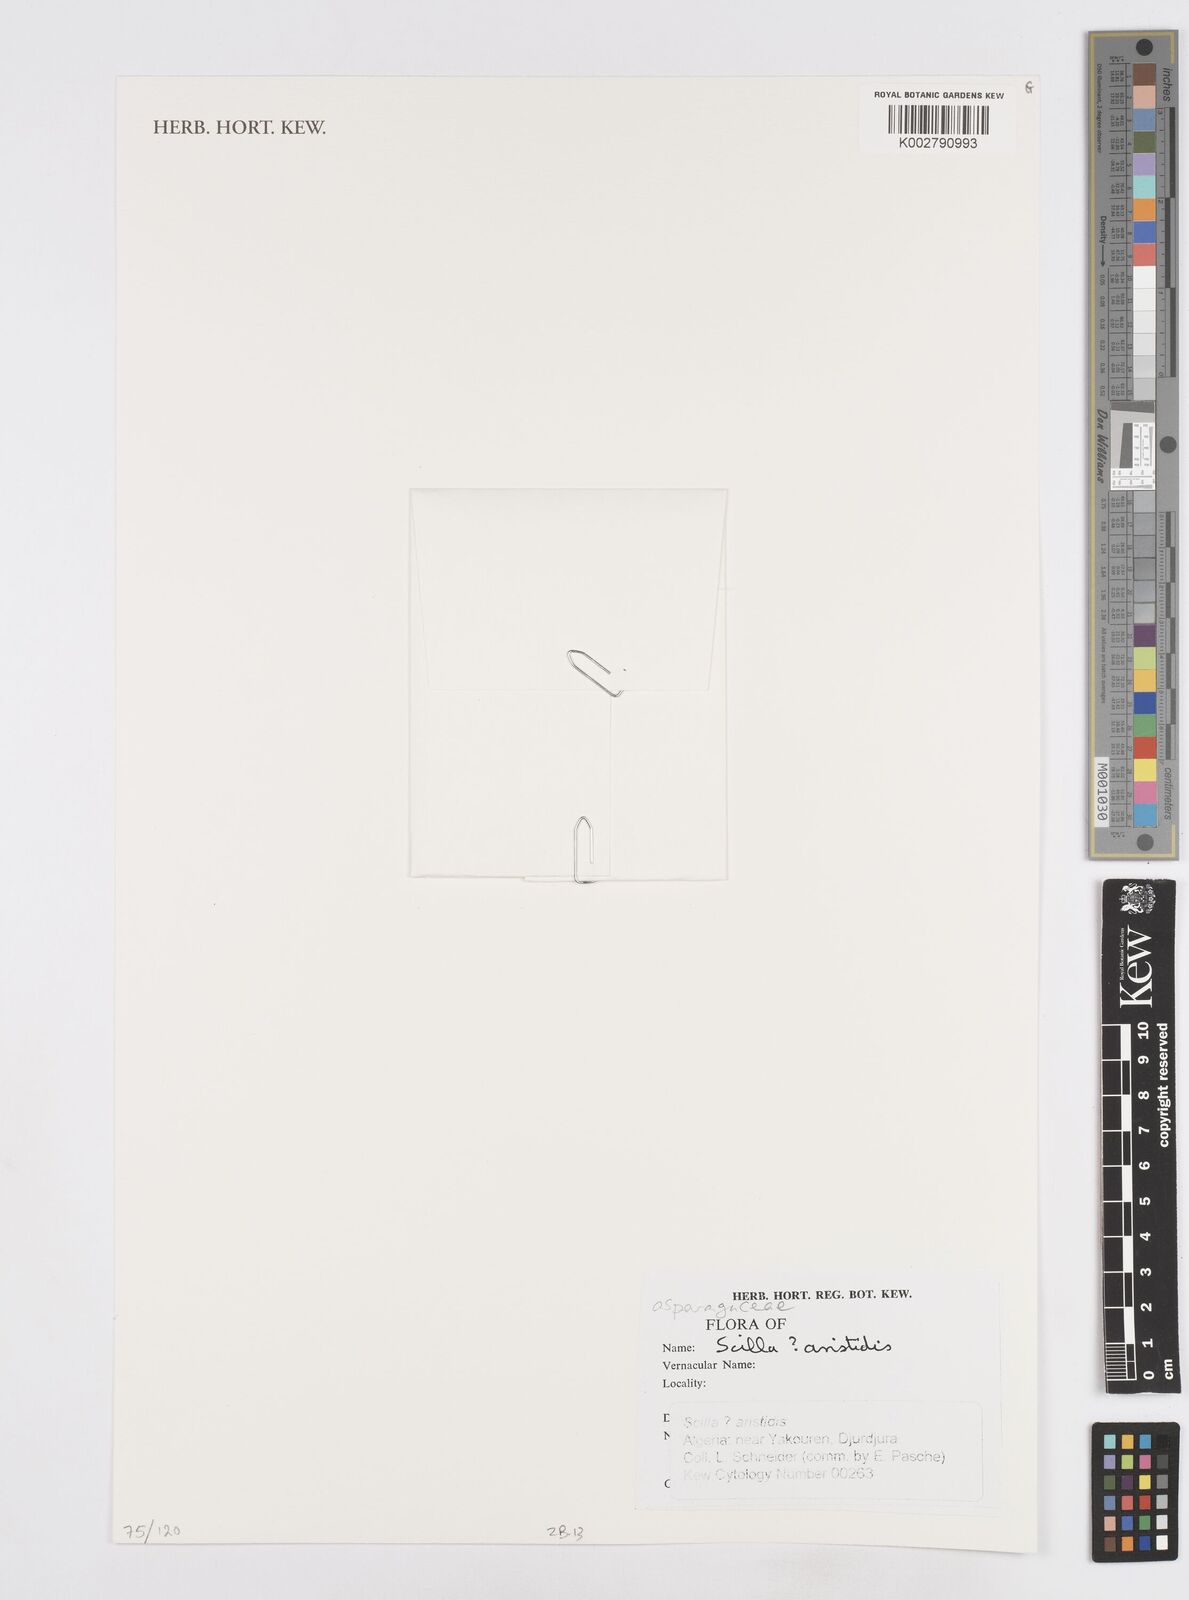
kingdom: Plantae
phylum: Tracheophyta
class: Liliopsida
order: Asparagales
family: Asparagaceae
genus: Hyacinthoides
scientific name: Hyacinthoides aristidis
